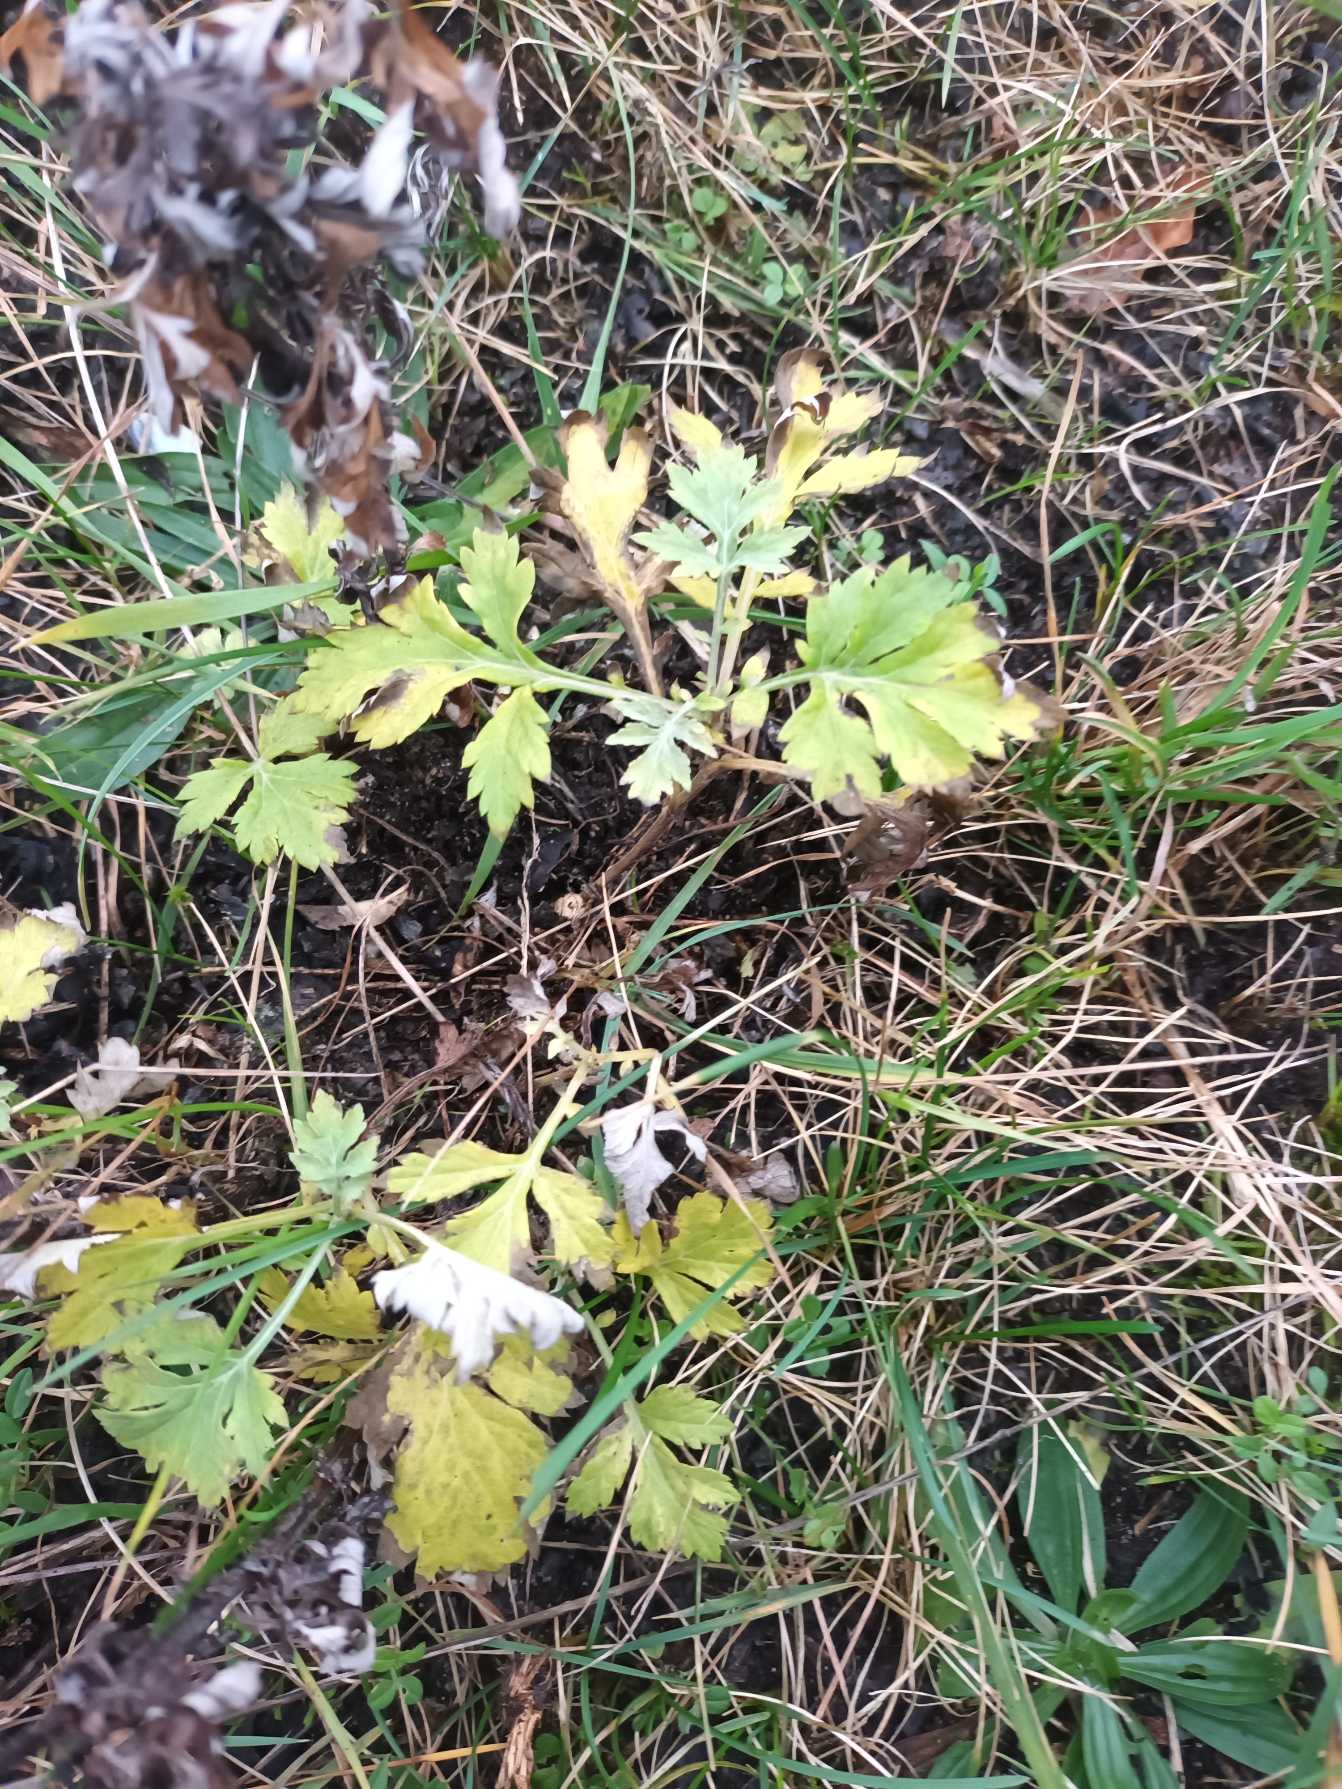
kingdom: Plantae
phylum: Tracheophyta
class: Magnoliopsida
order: Asterales
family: Asteraceae
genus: Artemisia
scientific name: Artemisia vulgaris
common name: Grå-bynke
